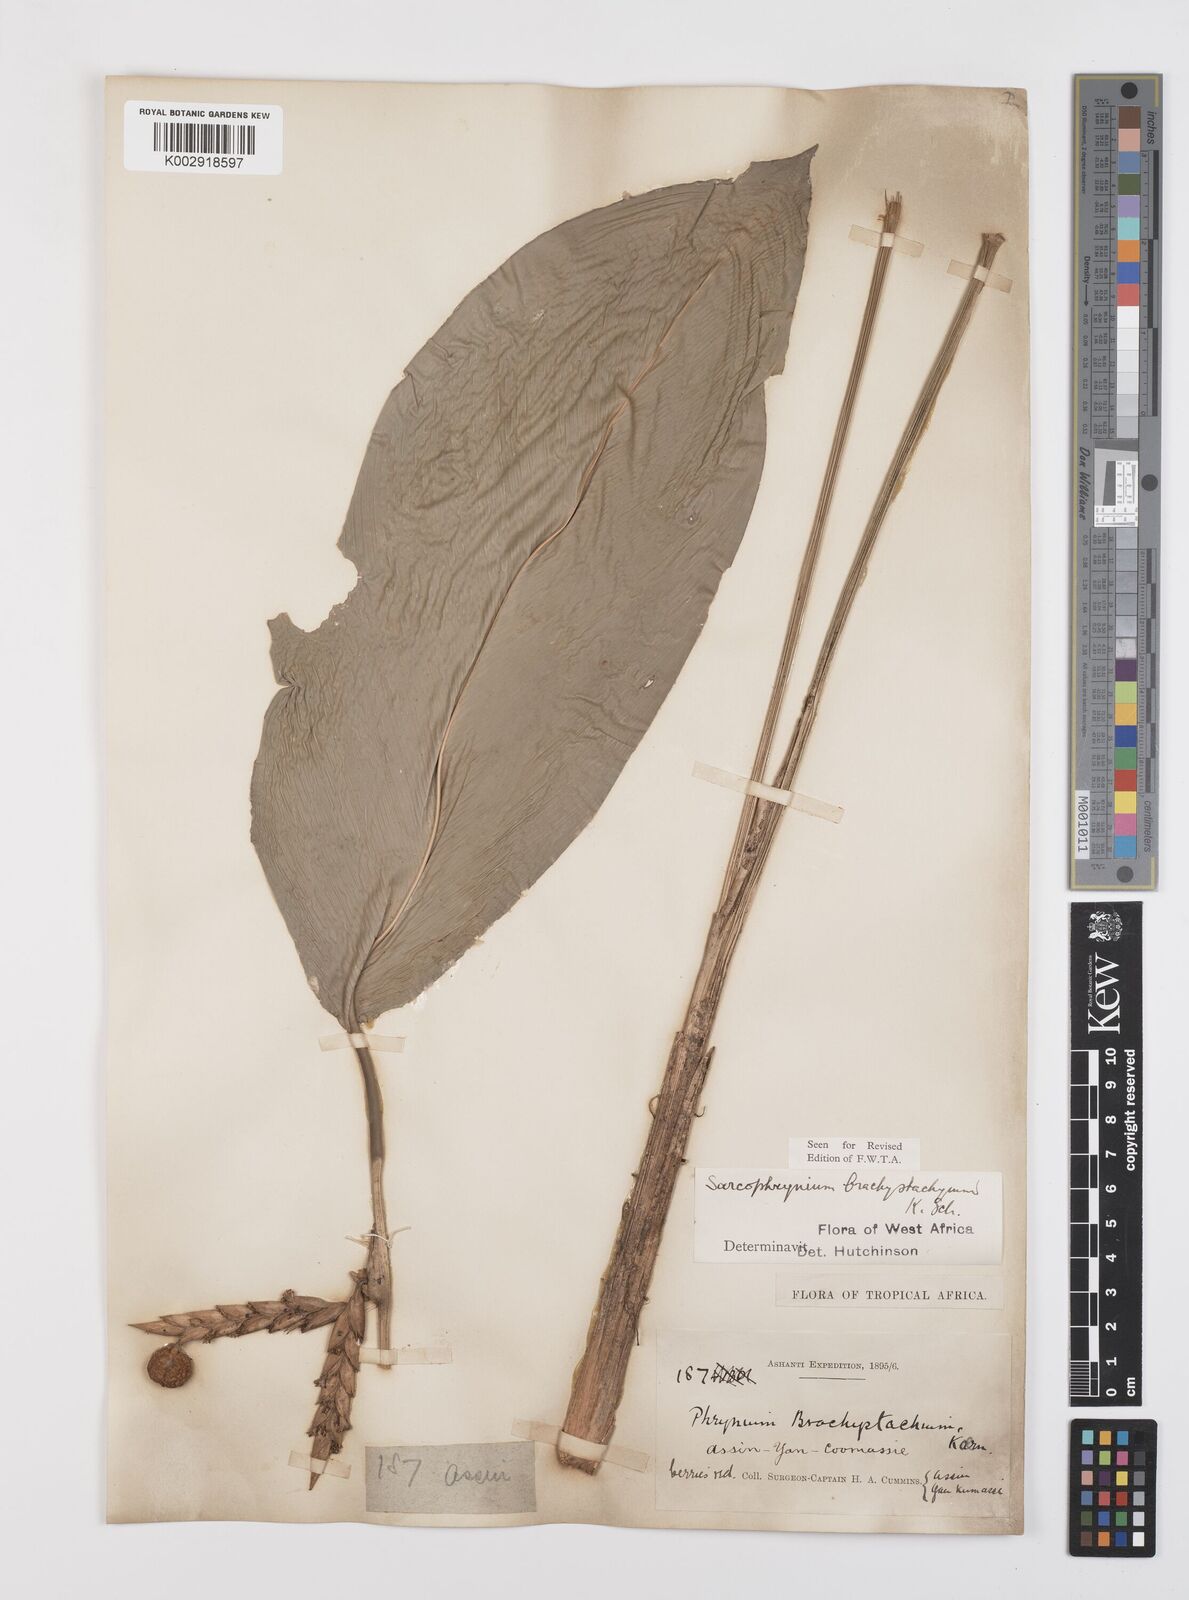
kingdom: Plantae
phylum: Tracheophyta
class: Liliopsida
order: Zingiberales
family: Marantaceae
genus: Sarcophrynium
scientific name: Sarcophrynium brachystachyum
